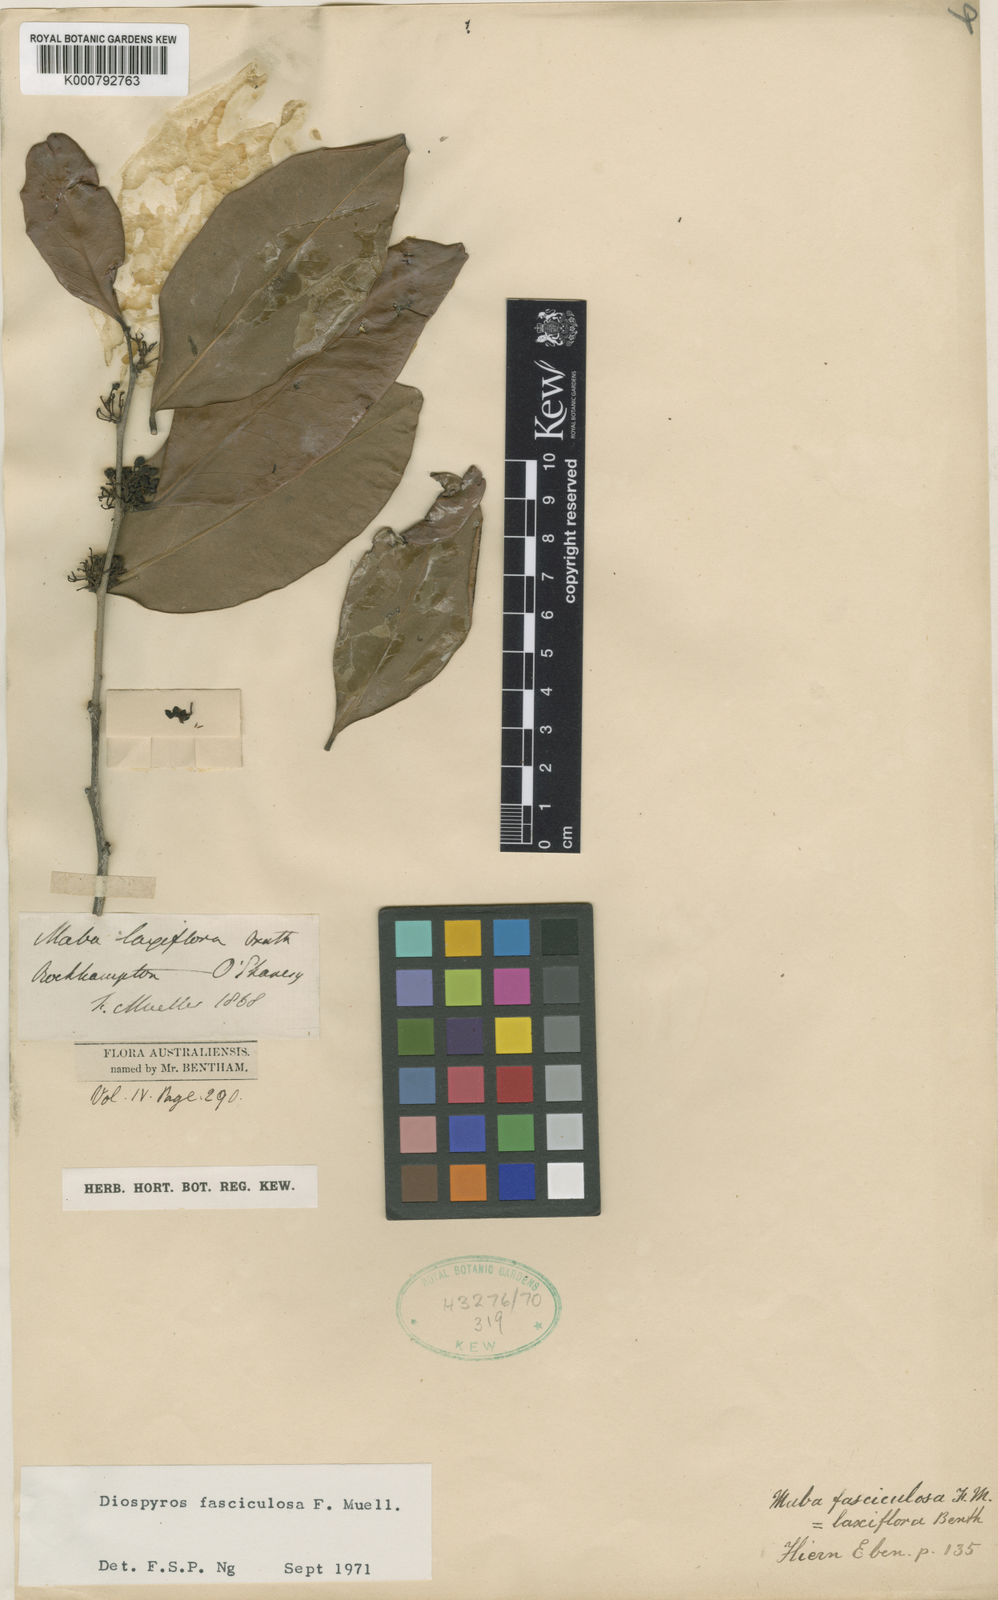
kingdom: Plantae
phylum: Tracheophyta
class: Magnoliopsida
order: Ericales
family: Ebenaceae
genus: Diospyros
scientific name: Diospyros fasciculosa
